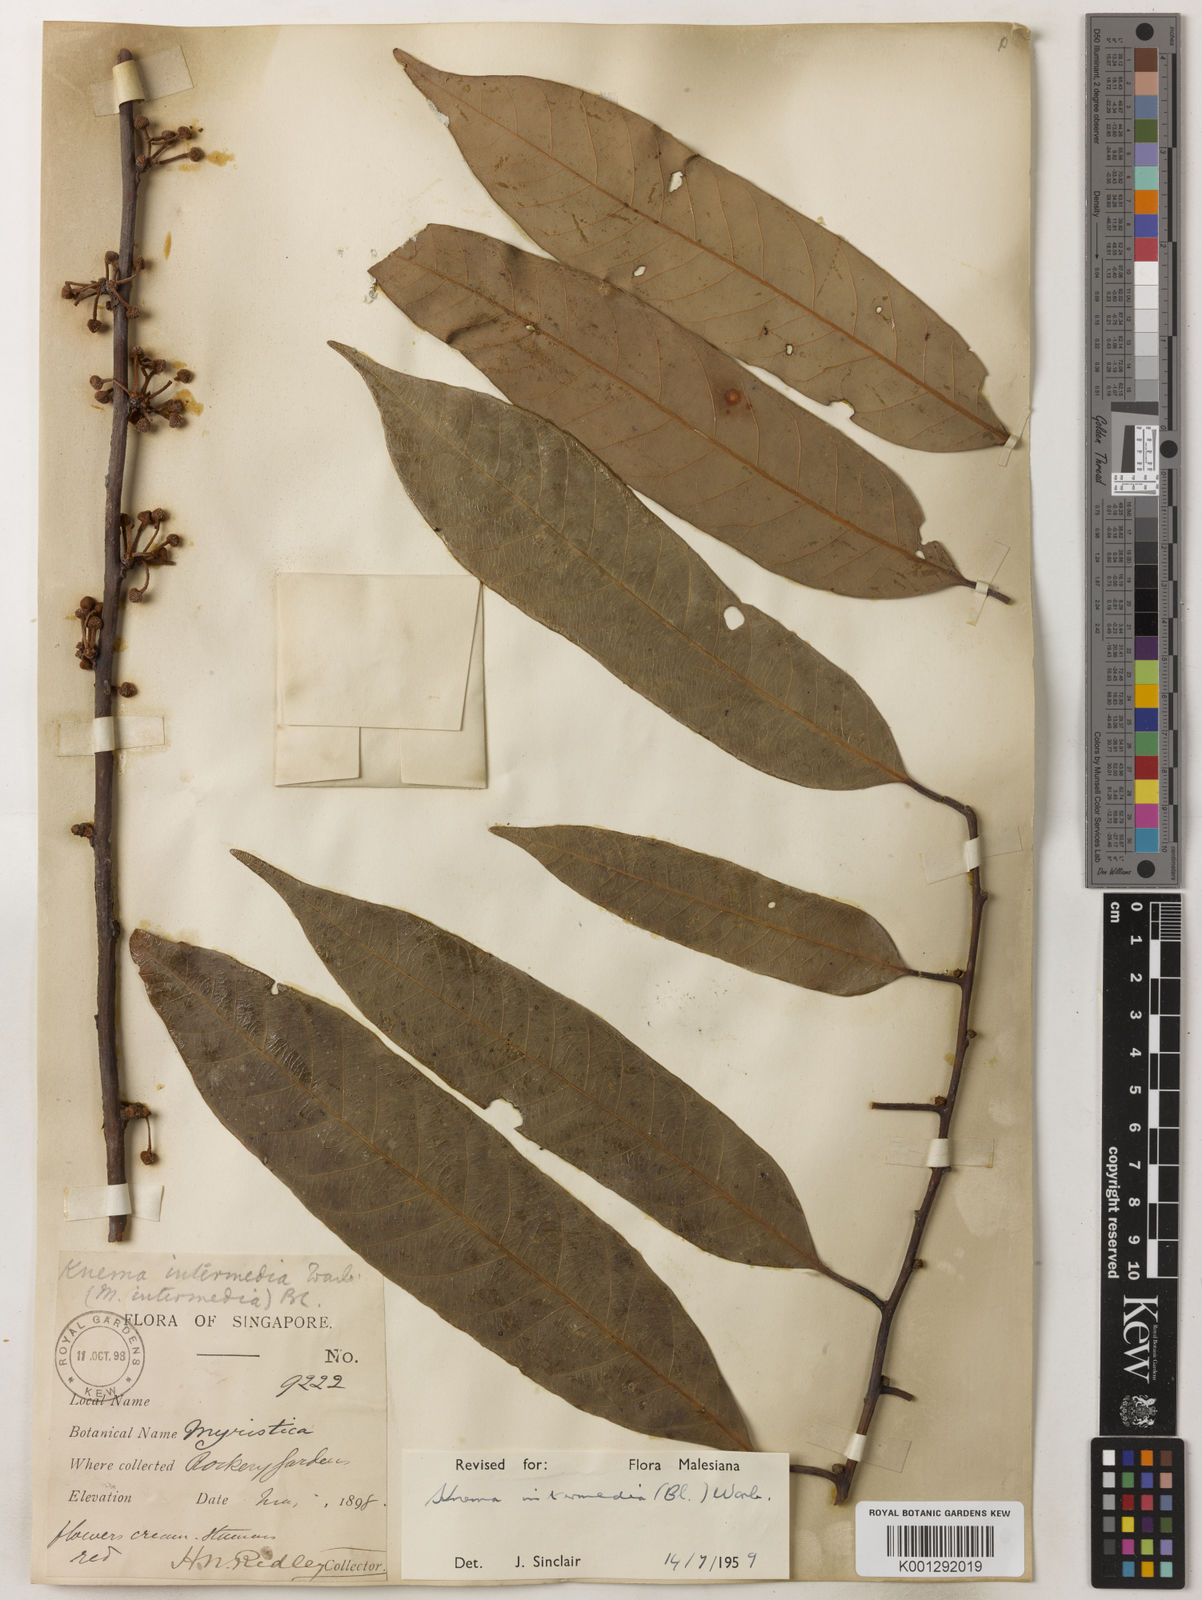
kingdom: Plantae
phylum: Tracheophyta
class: Magnoliopsida
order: Magnoliales
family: Myristicaceae
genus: Knema
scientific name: Knema intermedia
